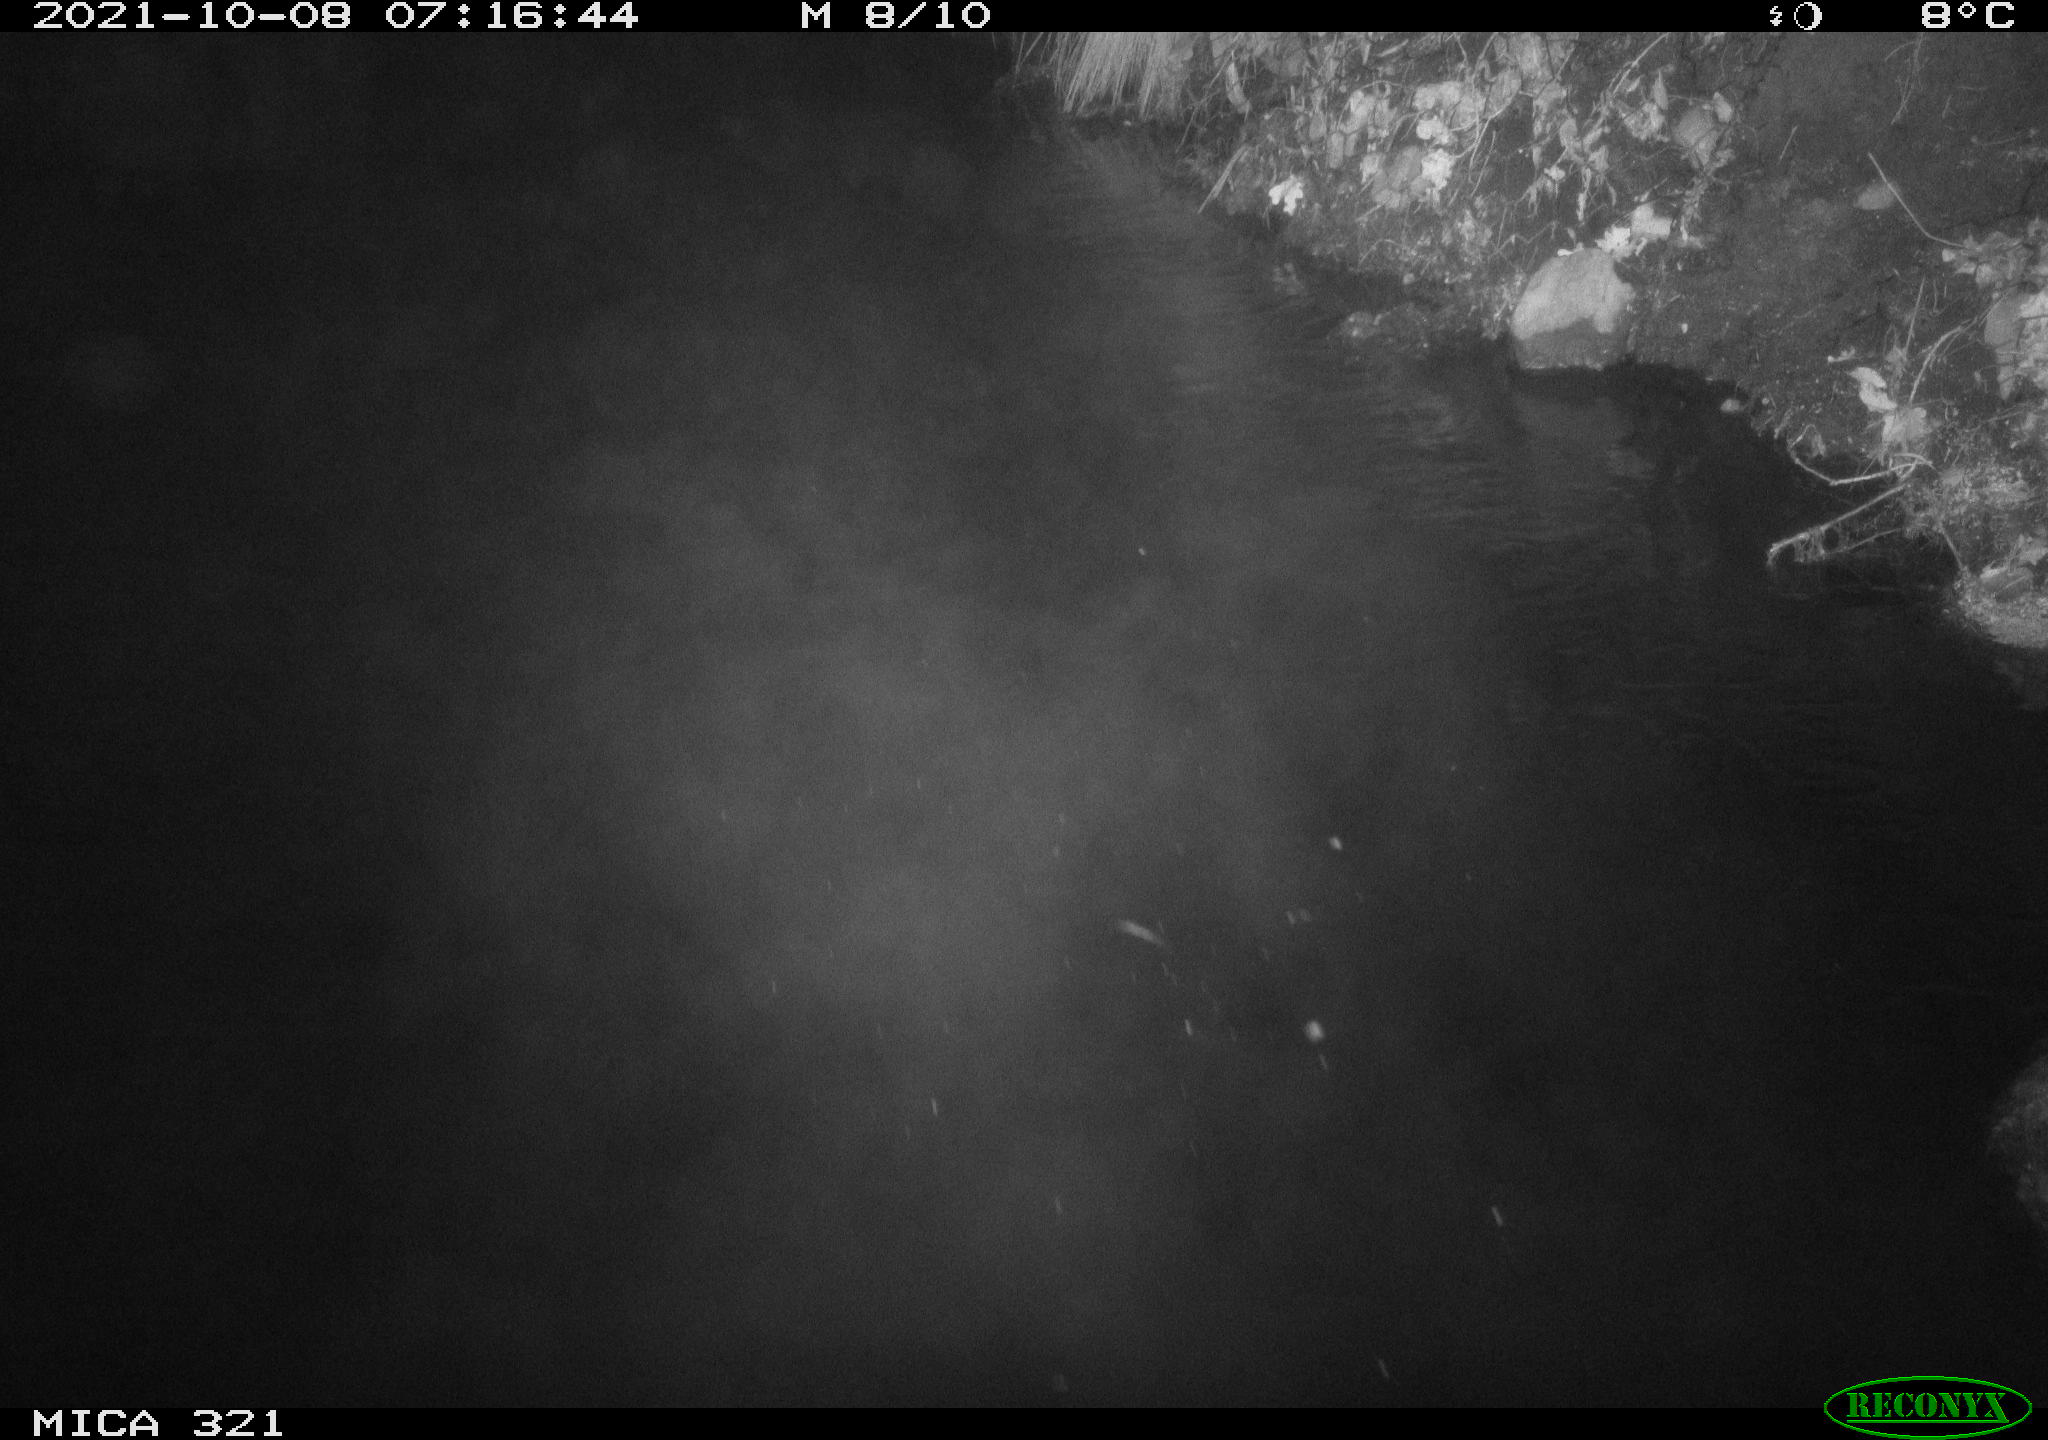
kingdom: Animalia
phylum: Chordata
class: Aves
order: Anseriformes
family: Anatidae
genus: Anas
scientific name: Anas platyrhynchos
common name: Mallard
